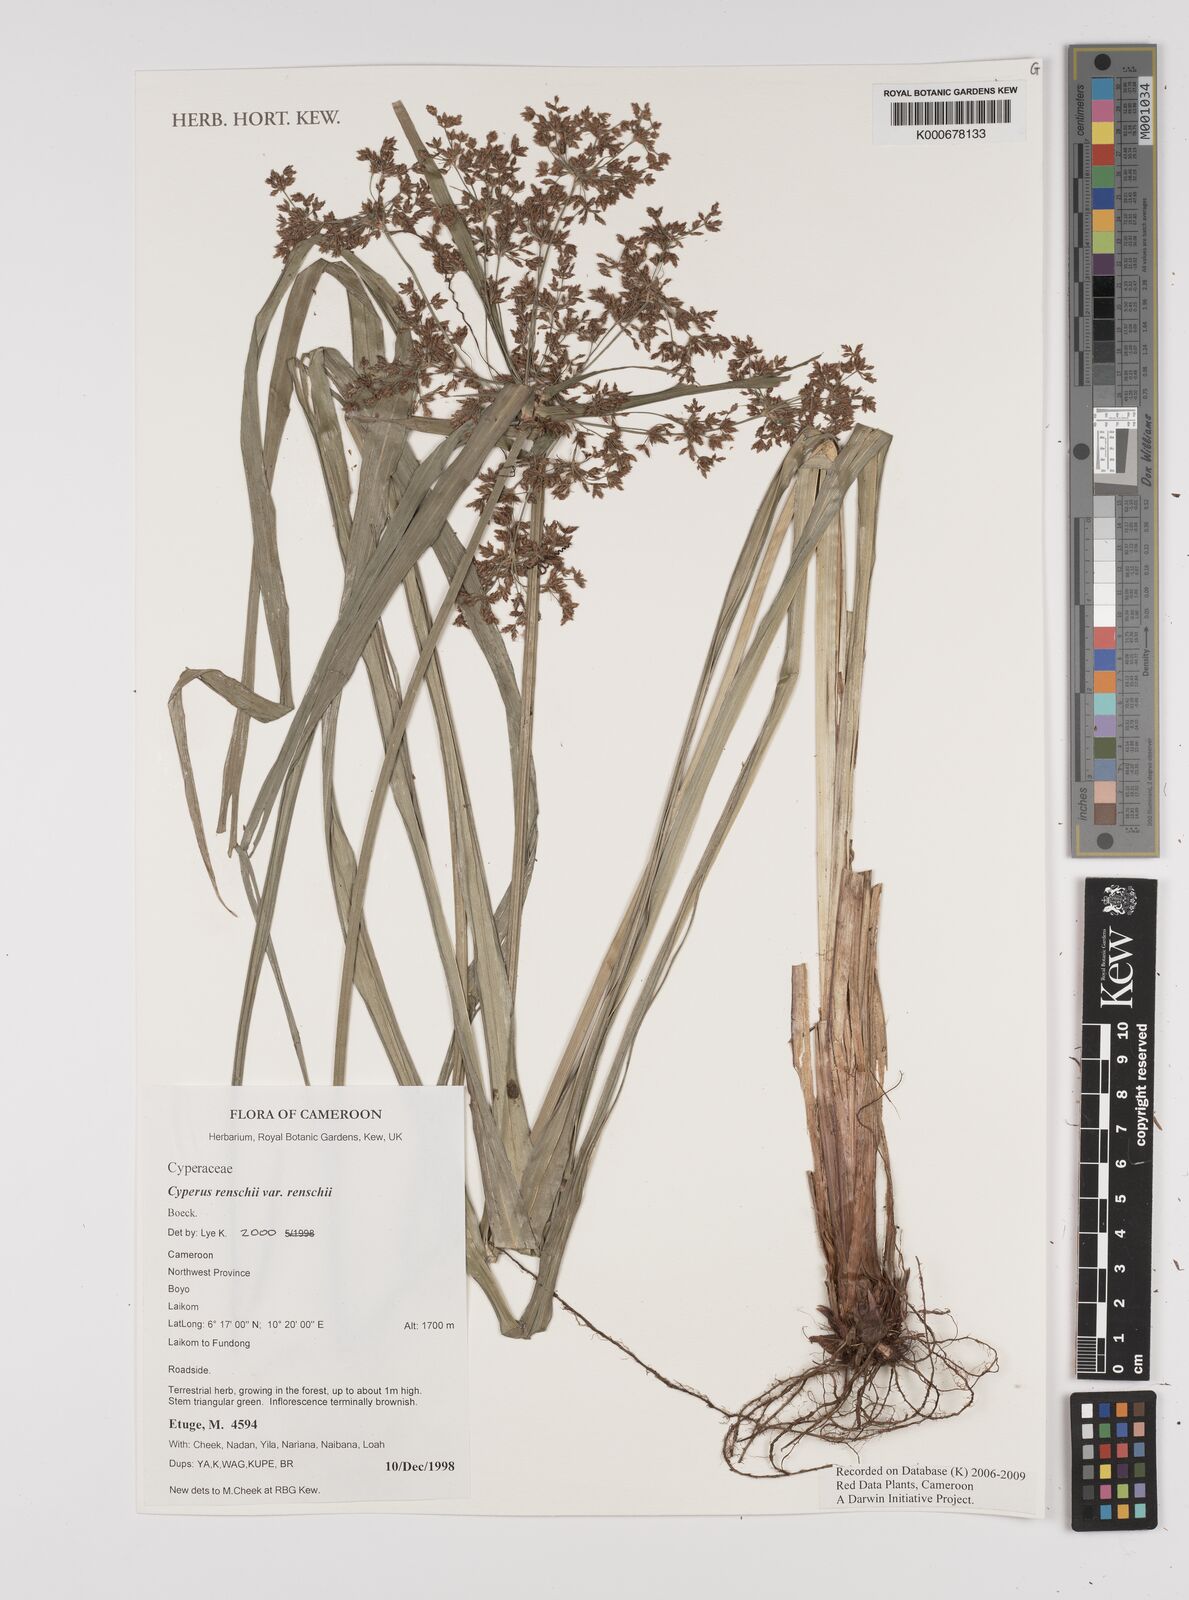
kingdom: Plantae
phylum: Tracheophyta
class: Liliopsida
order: Poales
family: Cyperaceae
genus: Cyperus
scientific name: Cyperus renschii
